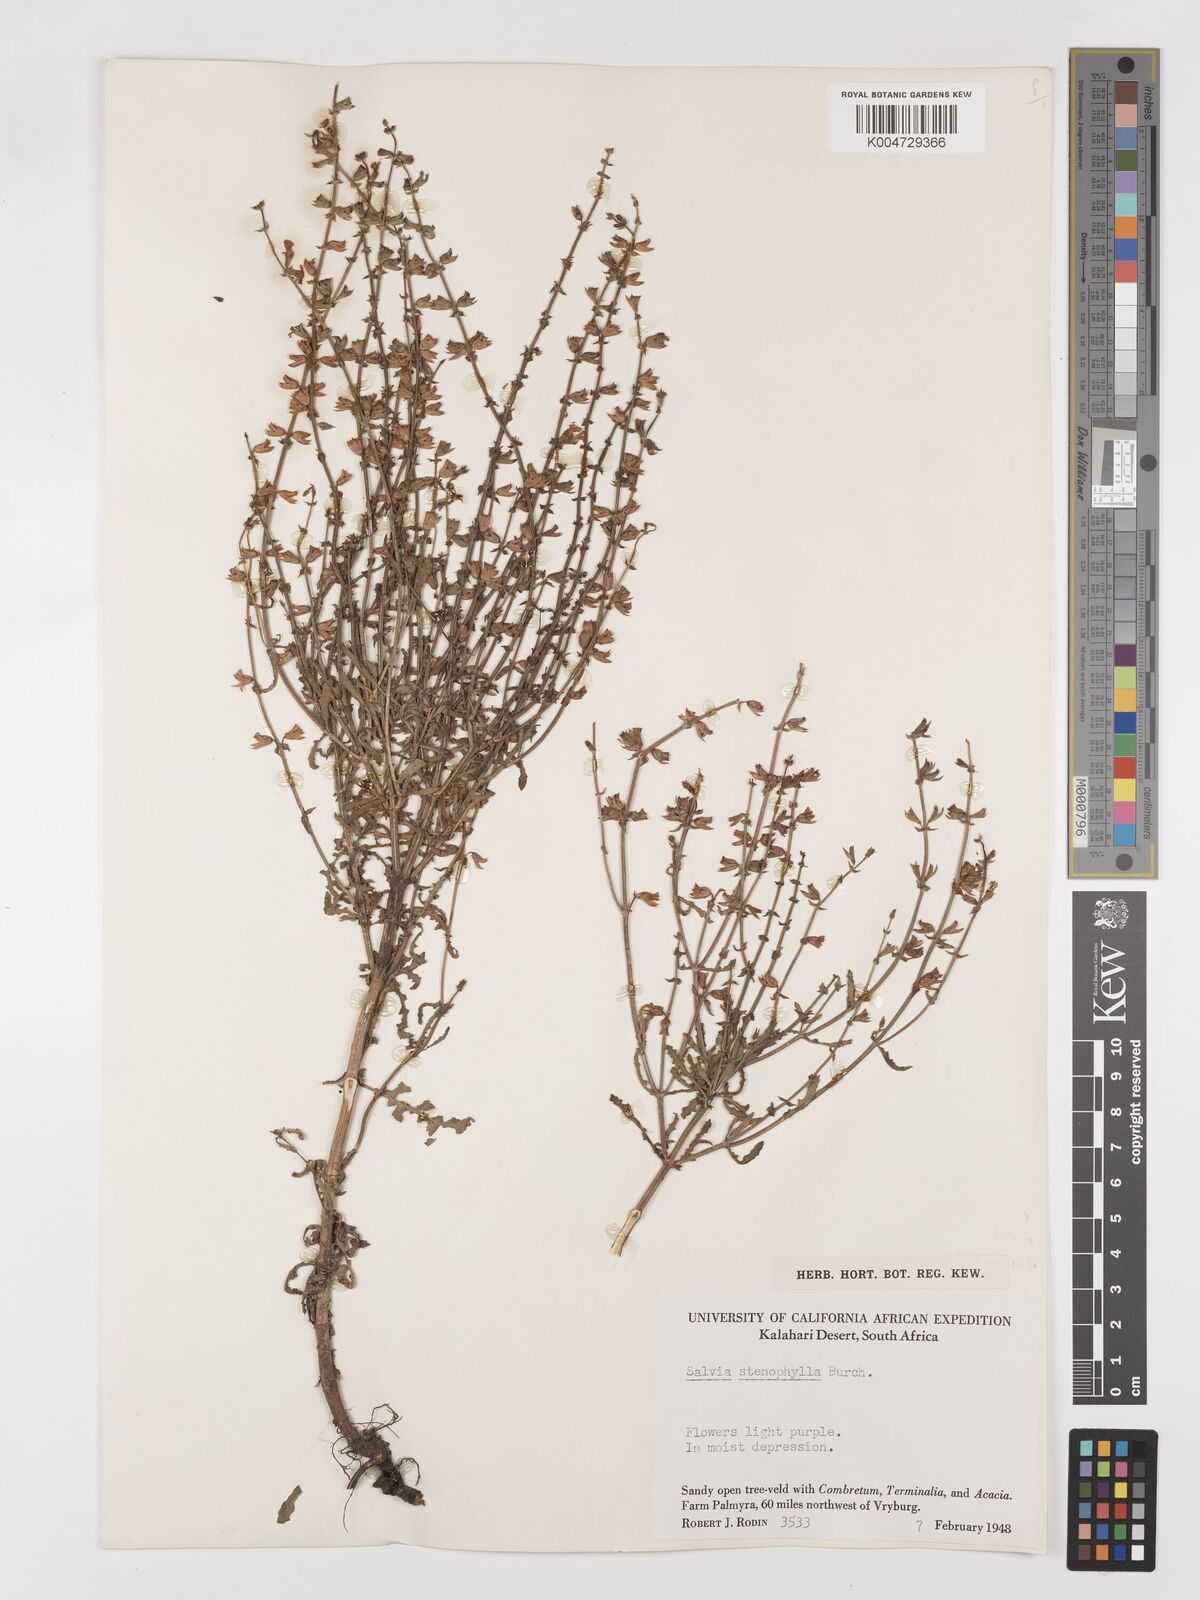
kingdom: Plantae
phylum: Tracheophyta
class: Magnoliopsida
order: Lamiales
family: Lamiaceae
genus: Salvia
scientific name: Salvia stenophylla
